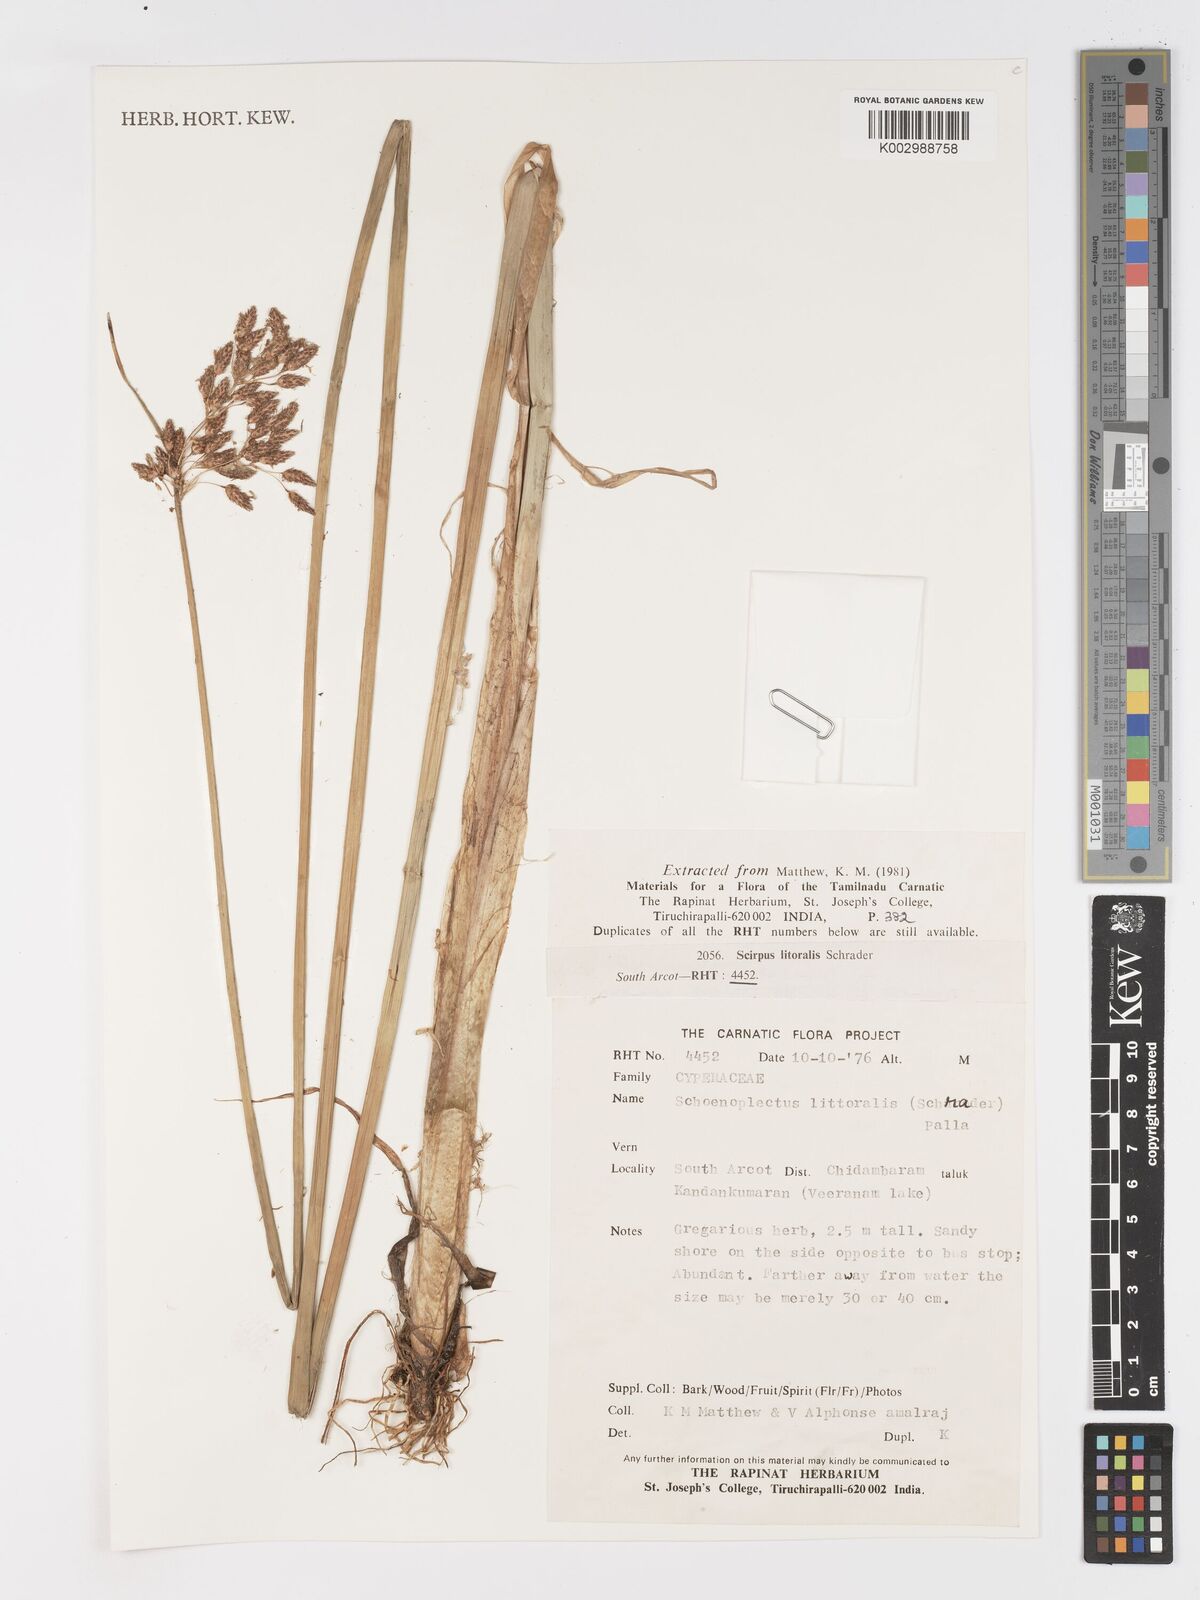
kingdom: Plantae
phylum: Tracheophyta
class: Liliopsida
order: Poales
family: Cyperaceae
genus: Schoenoplectus
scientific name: Schoenoplectus litoralis
